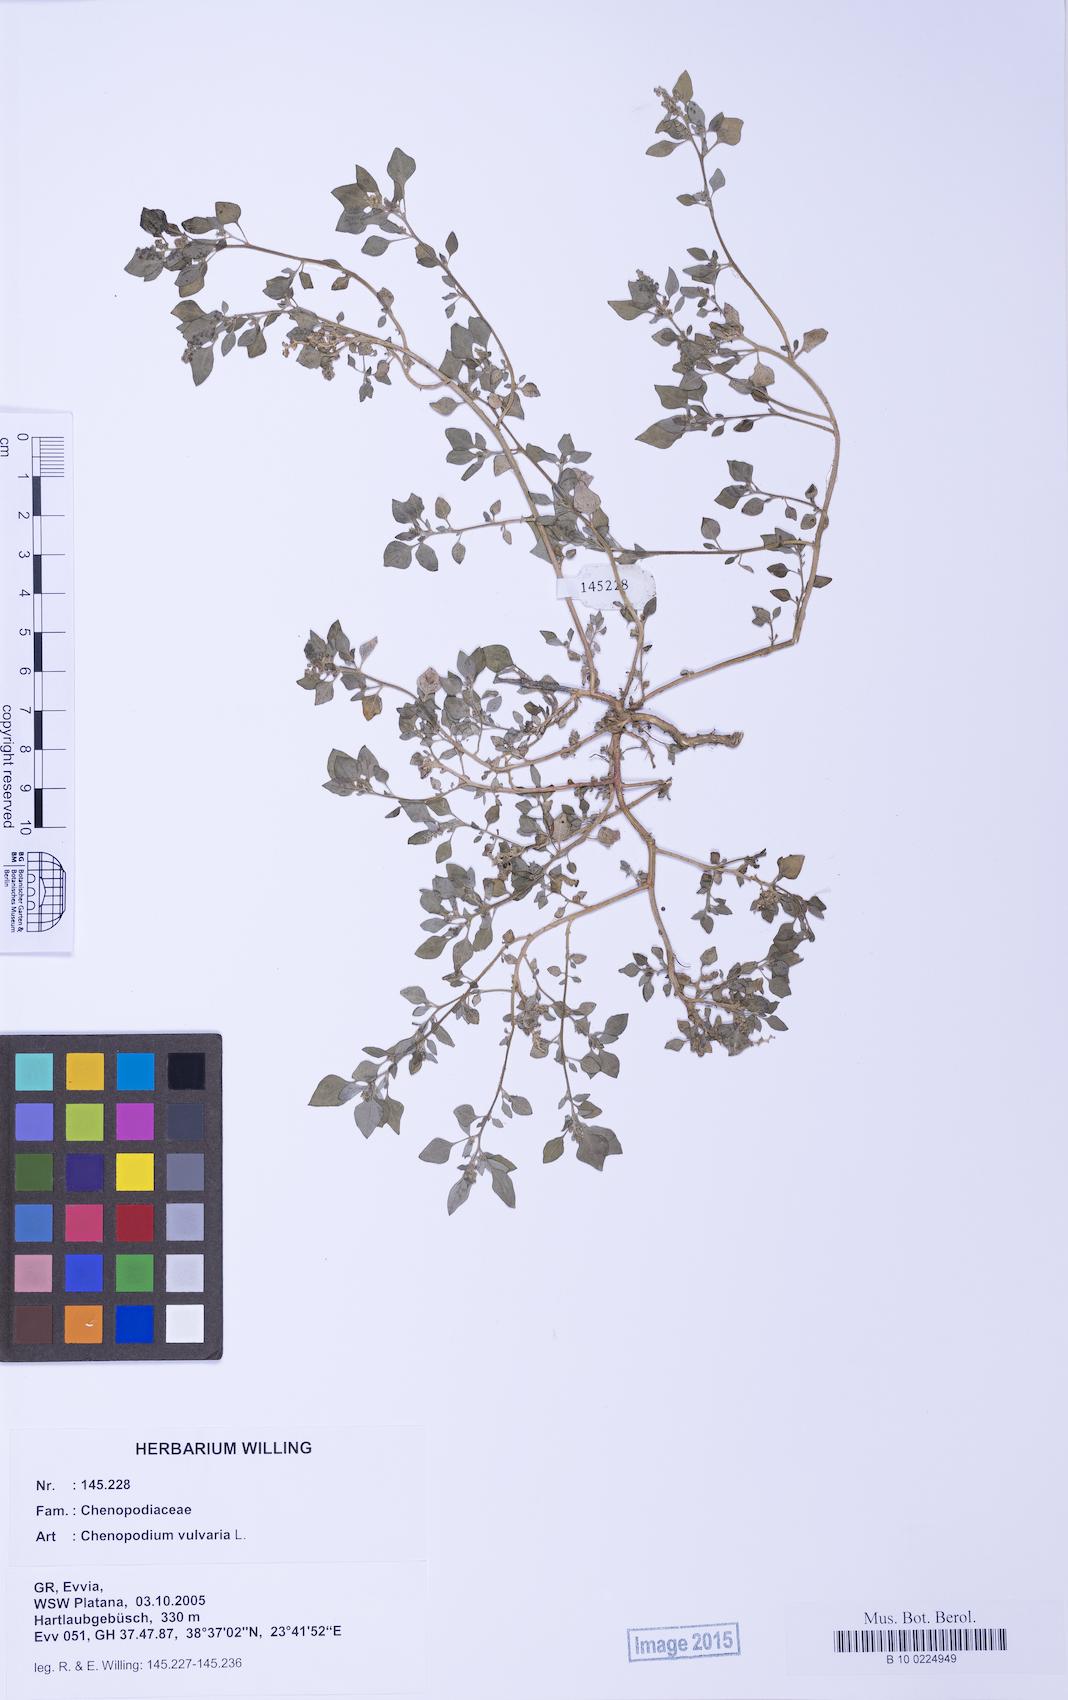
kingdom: Plantae
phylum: Tracheophyta
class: Magnoliopsida
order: Caryophyllales
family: Amaranthaceae
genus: Chenopodium
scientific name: Chenopodium vulvaria
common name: Stinking goosefoot
